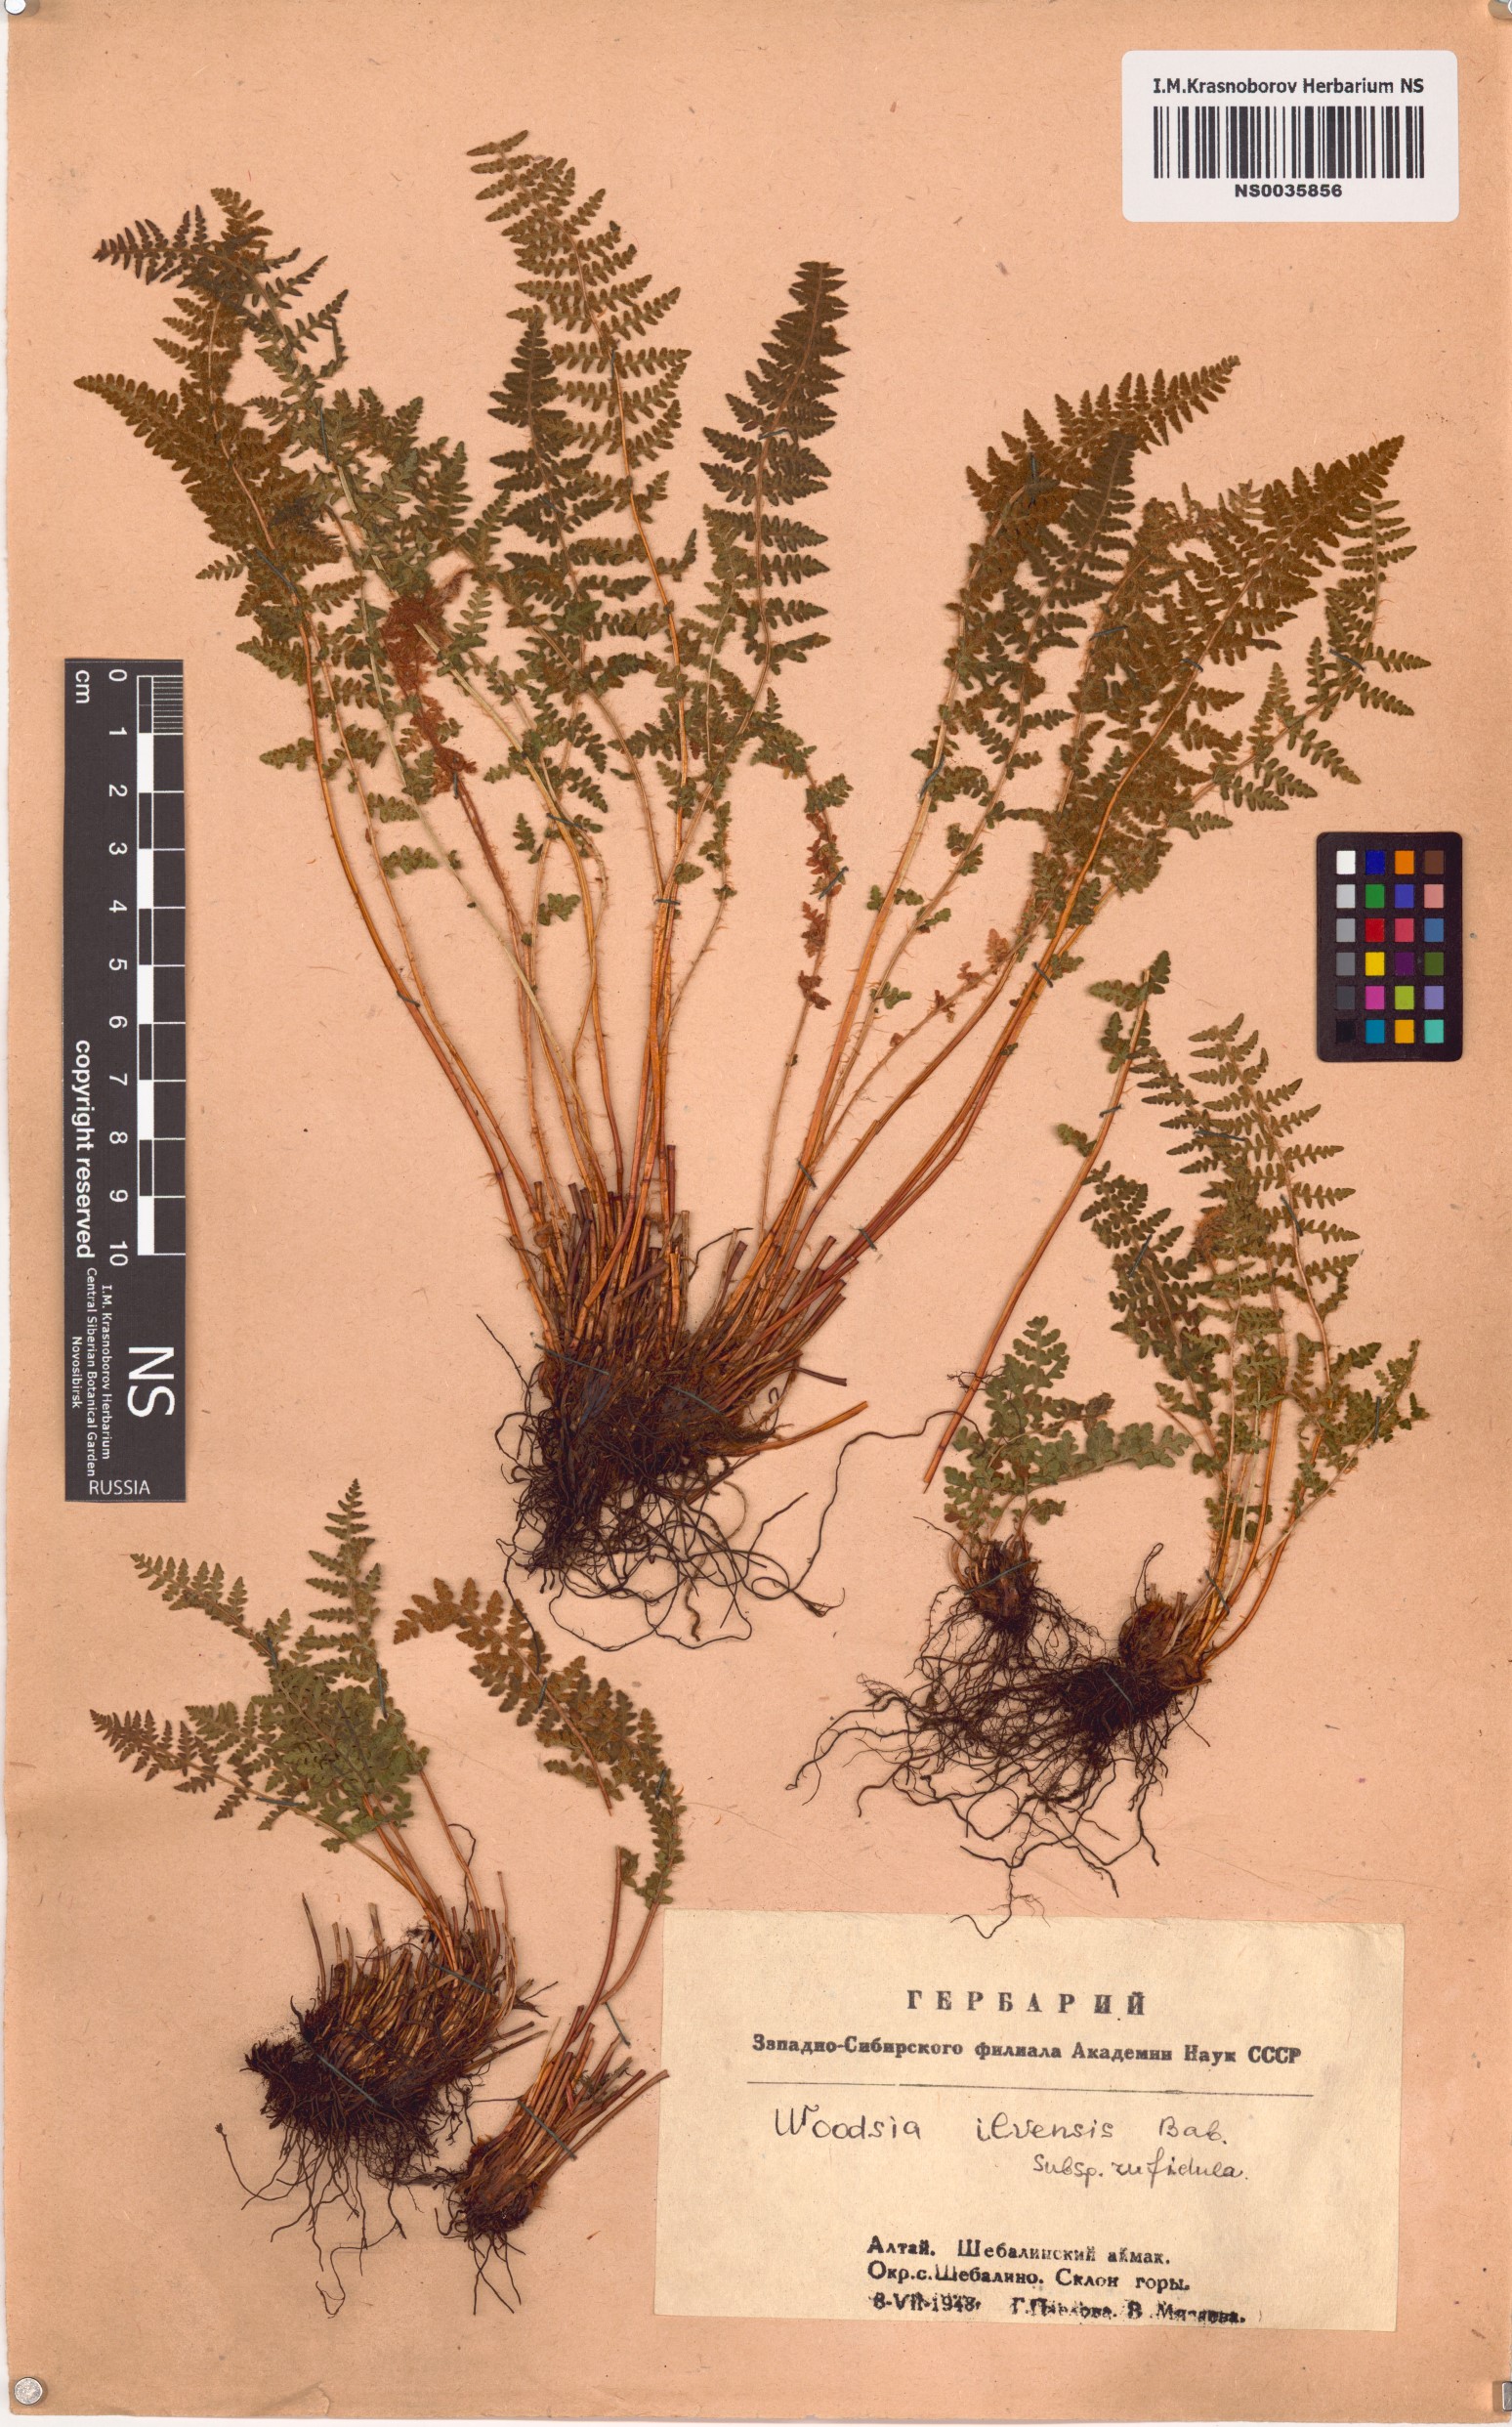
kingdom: Plantae
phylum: Tracheophyta
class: Polypodiopsida
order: Polypodiales
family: Woodsiaceae
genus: Woodsia
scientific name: Woodsia ilvensis
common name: Fragrant woodsia
